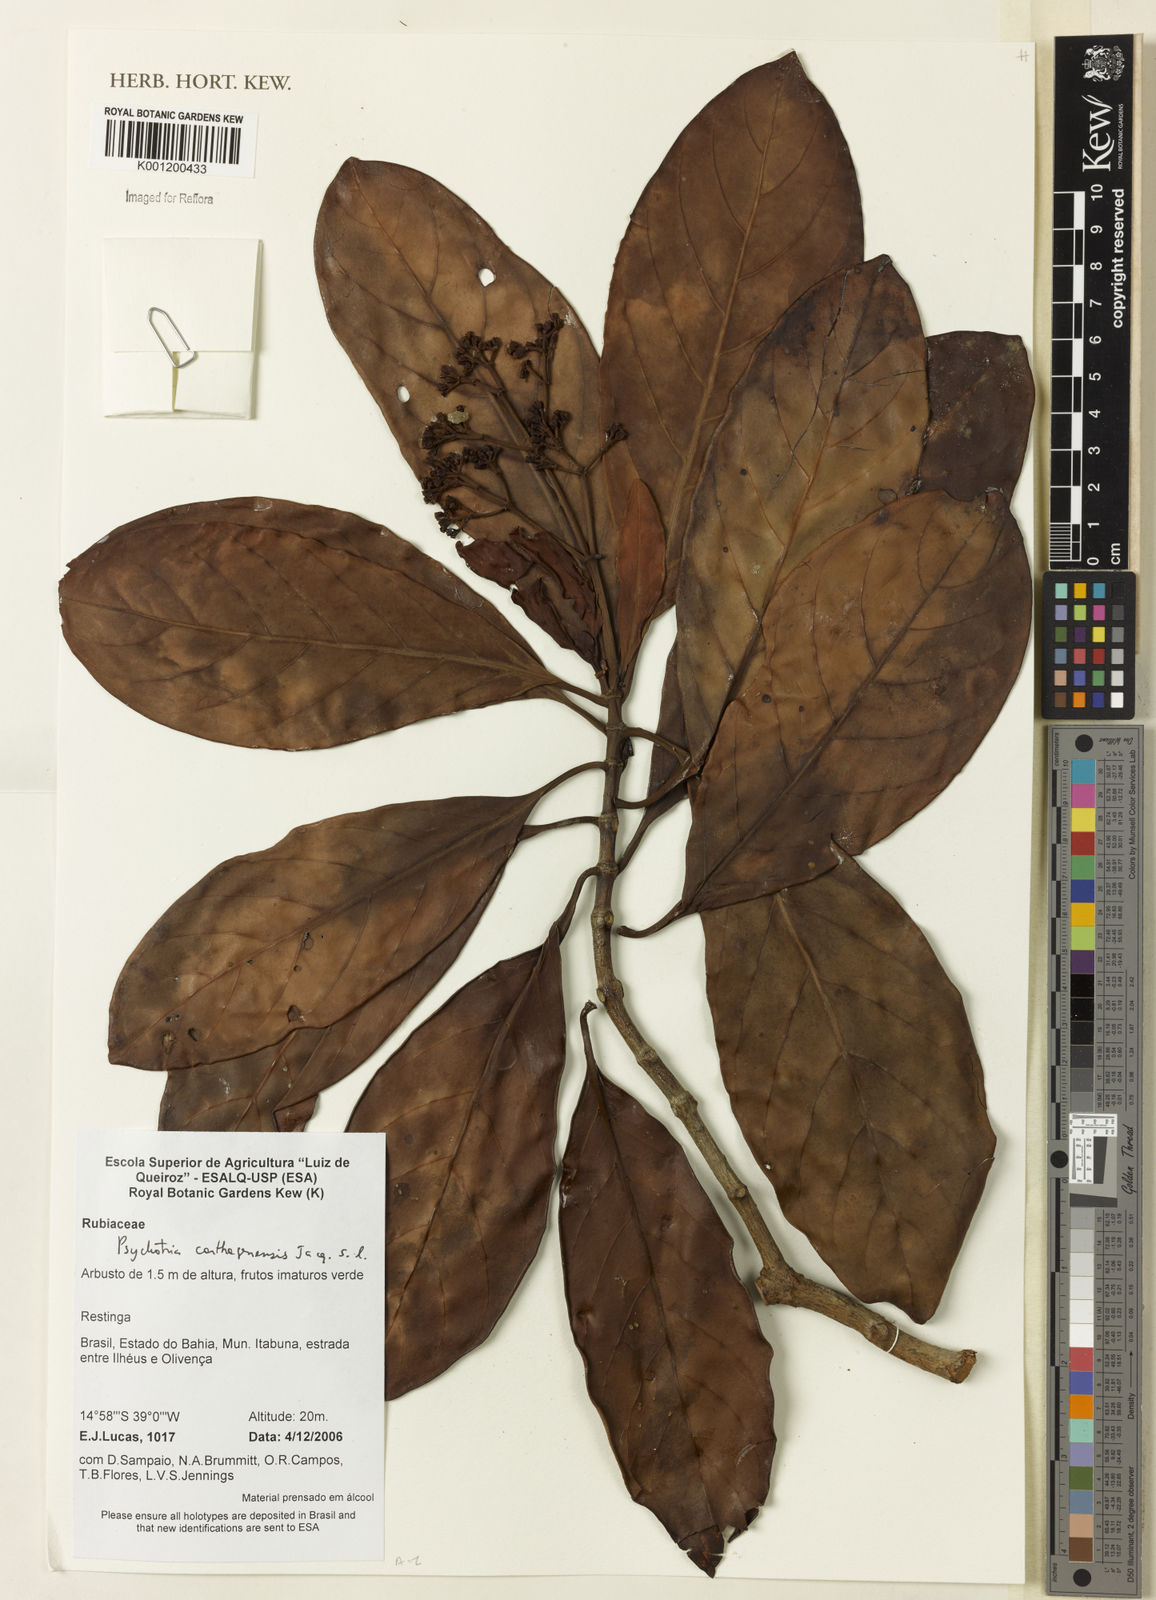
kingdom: Plantae
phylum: Tracheophyta
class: Magnoliopsida
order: Gentianales
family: Rubiaceae
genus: Psychotria
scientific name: Psychotria carthagenensis
